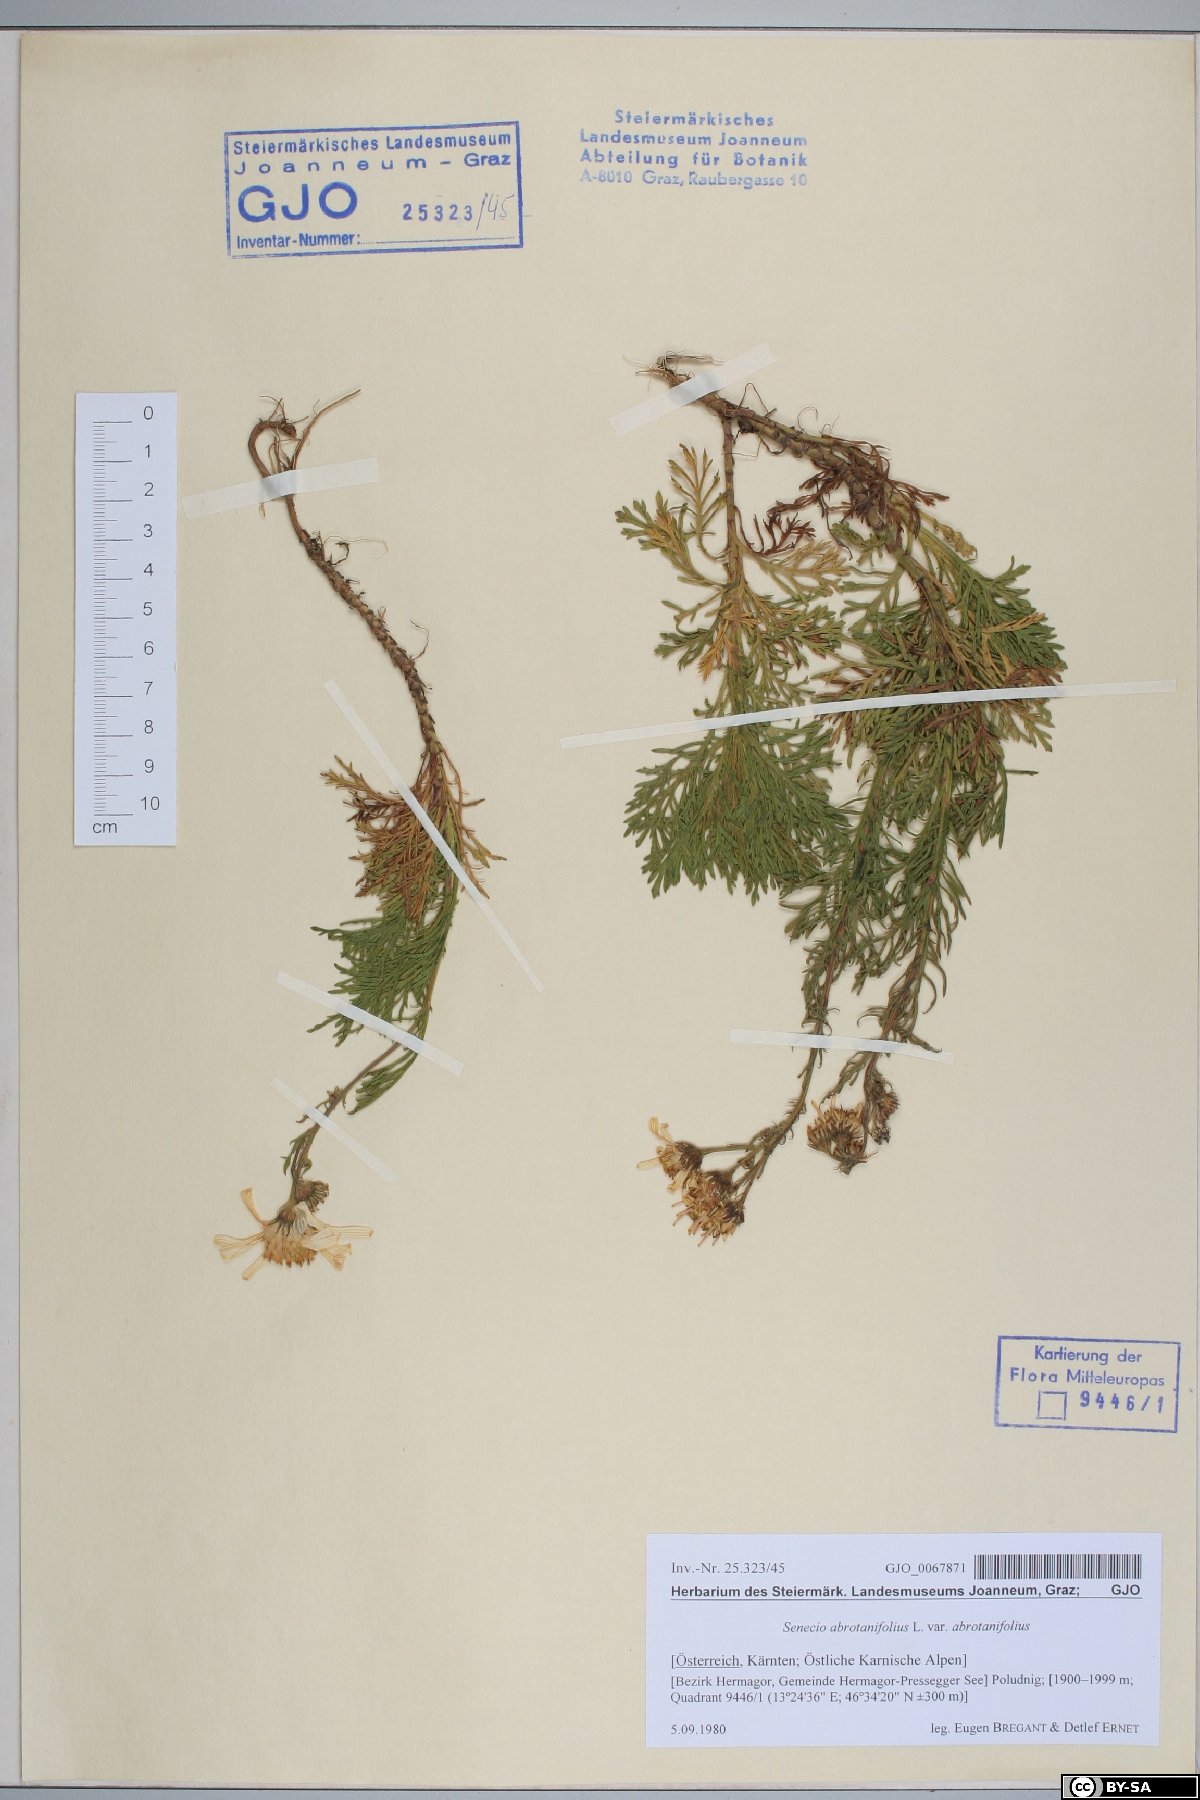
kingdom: Plantae
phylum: Tracheophyta
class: Magnoliopsida
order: Asterales
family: Asteraceae
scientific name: Asteraceae
